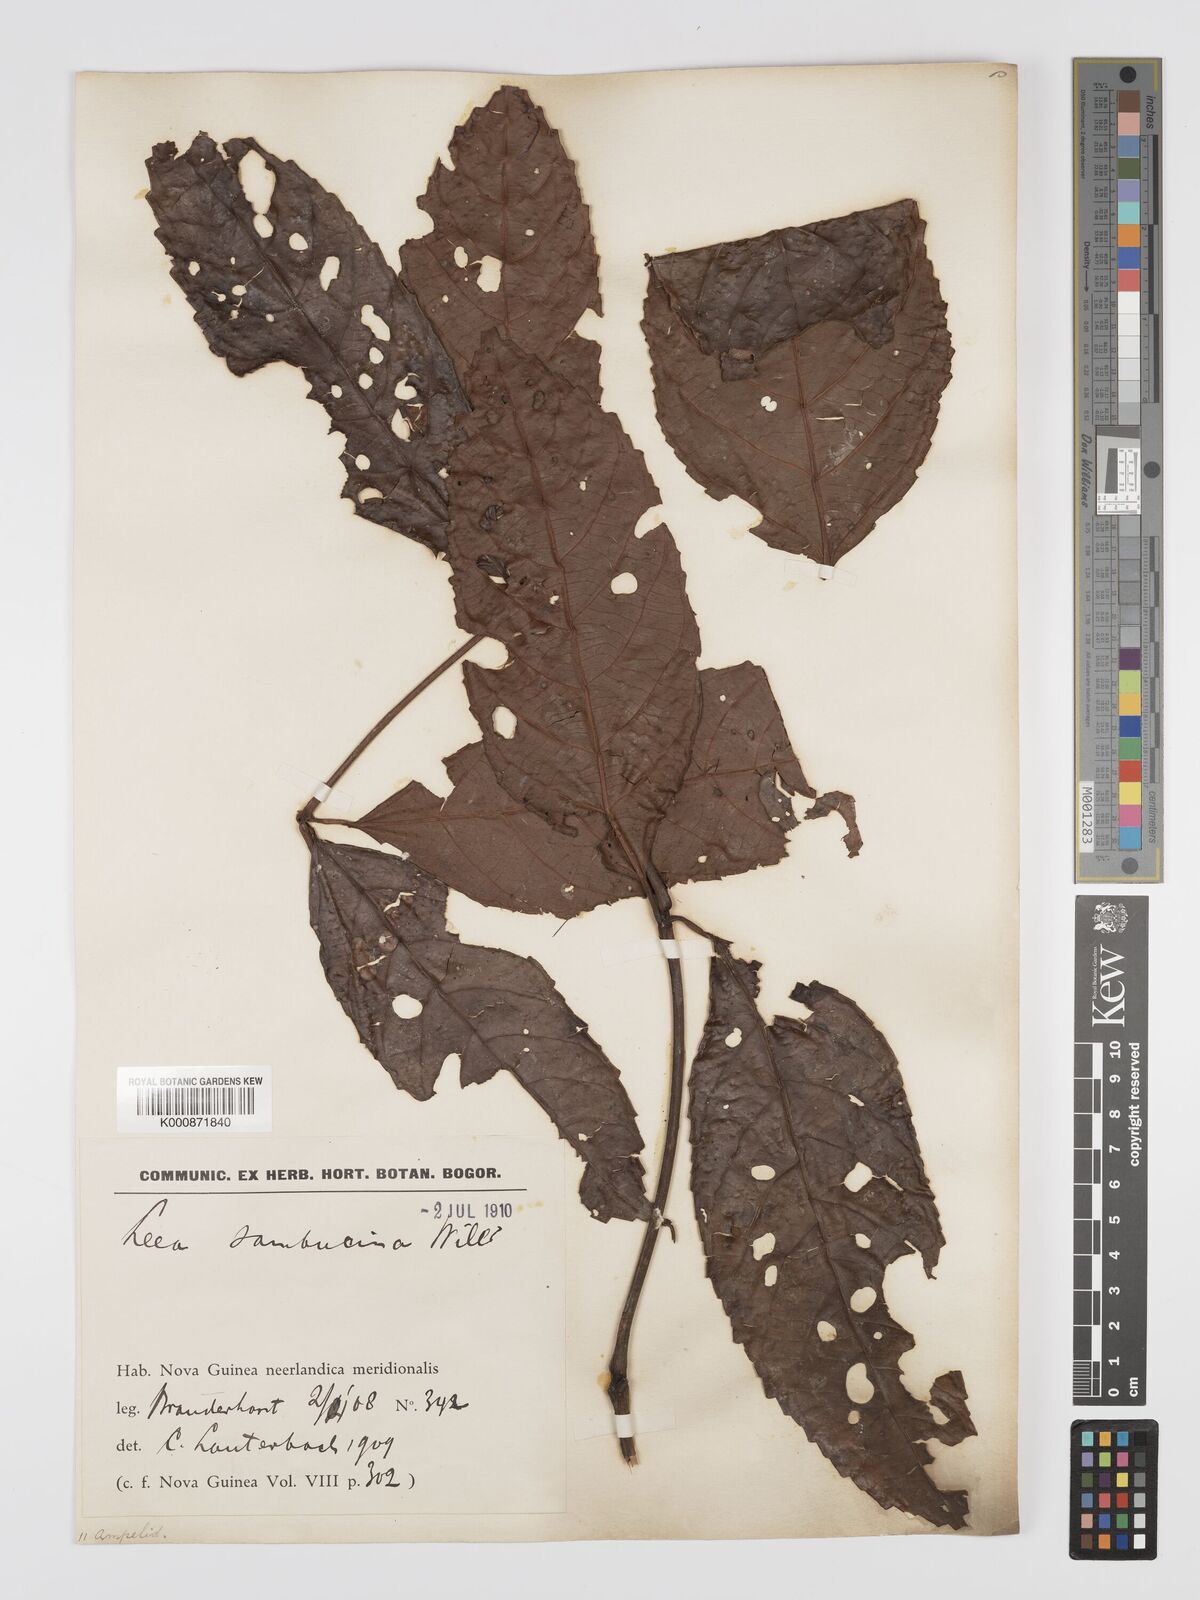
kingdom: Plantae
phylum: Tracheophyta
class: Magnoliopsida
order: Vitales
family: Vitaceae
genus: Leea
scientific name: Leea indica
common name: Bandicoot-berry
